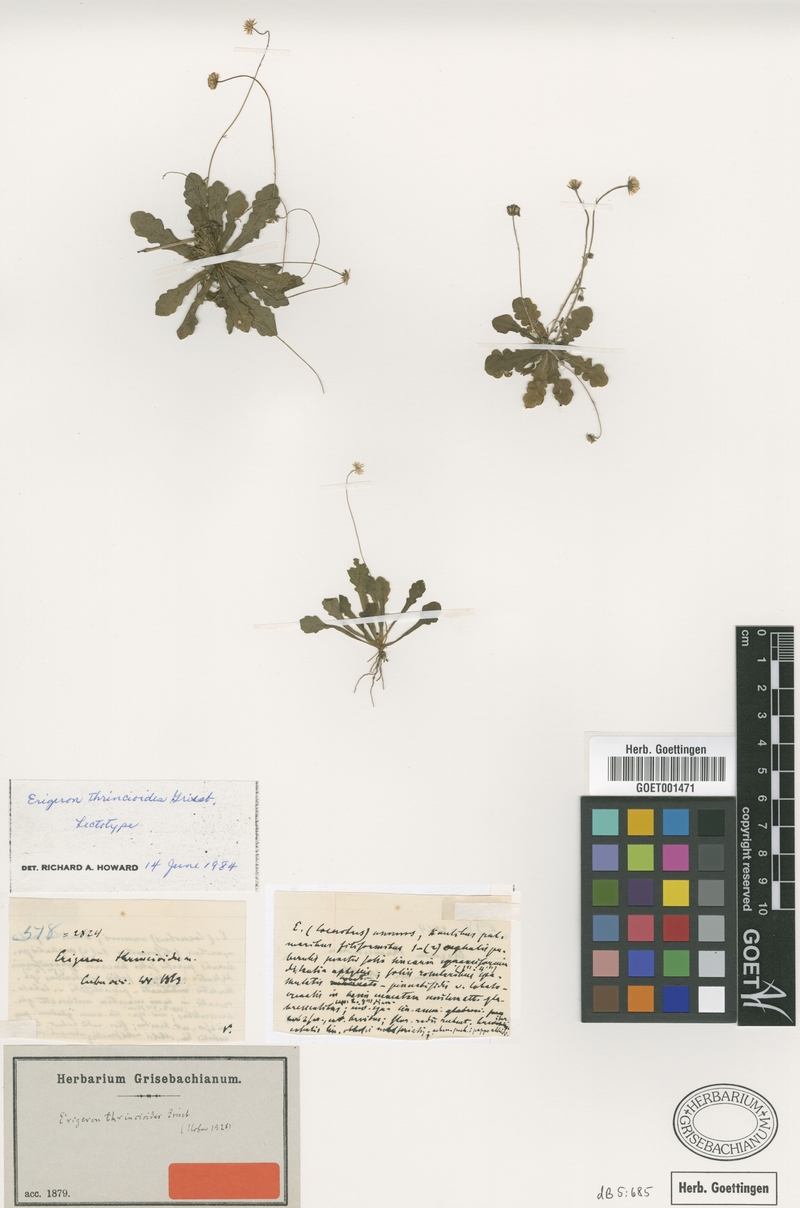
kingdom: Plantae
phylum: Tracheophyta
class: Magnoliopsida
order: Asterales
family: Asteraceae
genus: Erigeron
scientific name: Erigeron thrincioides
